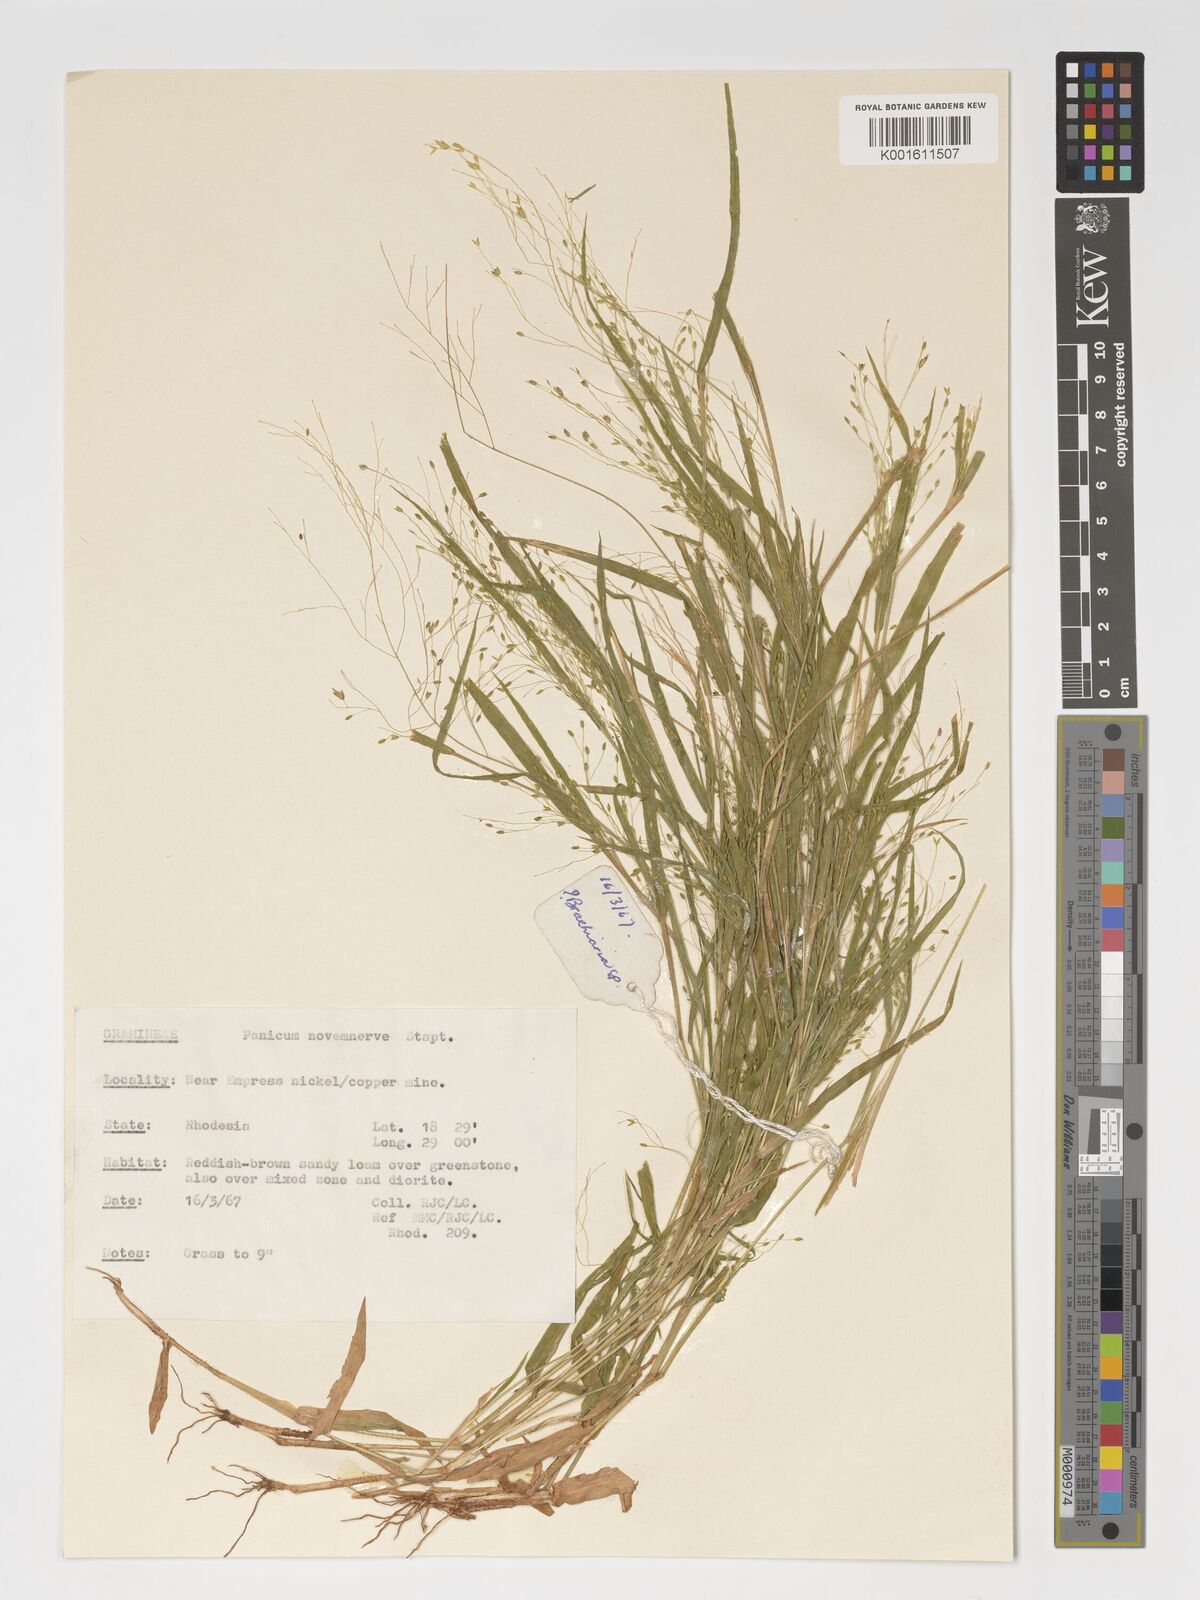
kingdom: Plantae
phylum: Tracheophyta
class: Liliopsida
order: Poales
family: Poaceae
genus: Panicum
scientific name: Panicum novemnerve
